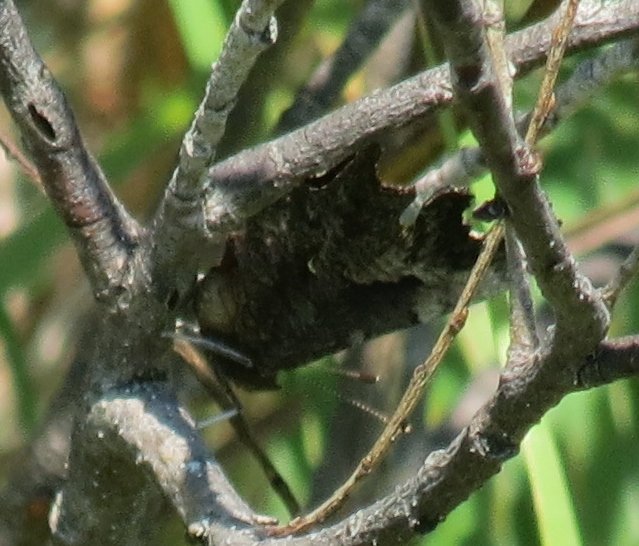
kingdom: Animalia
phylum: Arthropoda
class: Insecta
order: Lepidoptera
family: Nymphalidae
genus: Polygonia
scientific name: Polygonia progne
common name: Gray Comma
